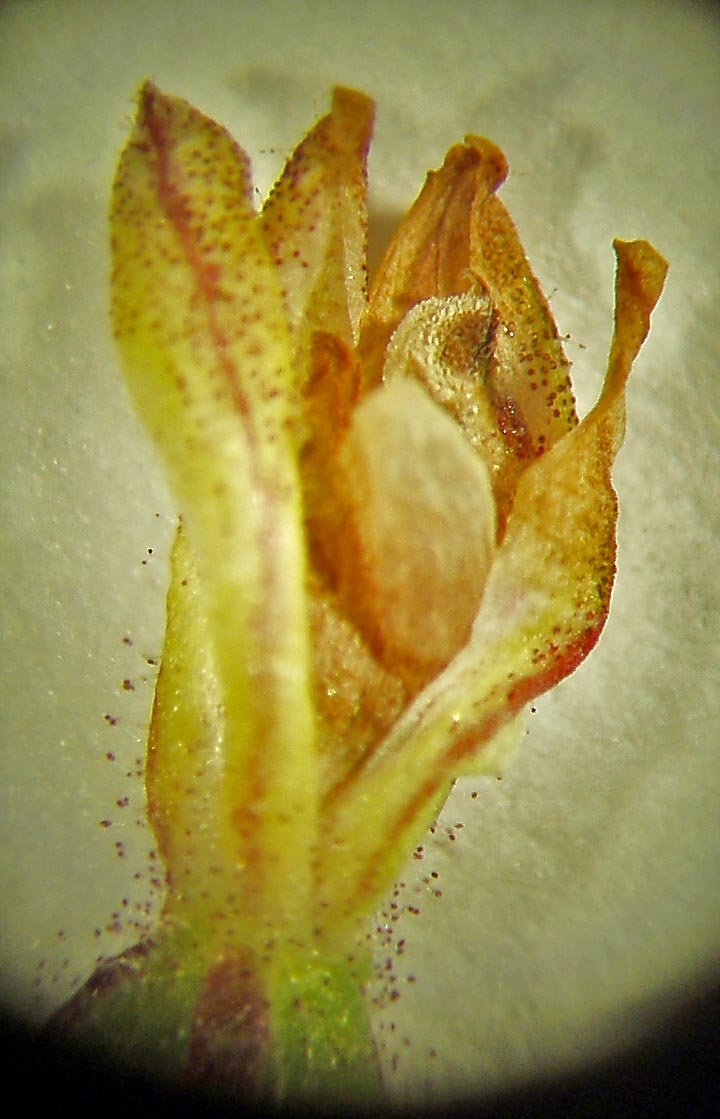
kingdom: Plantae
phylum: Tracheophyta
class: Liliopsida
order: Asparagales
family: Orchidaceae
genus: Caladenia
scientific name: Caladenia alata
